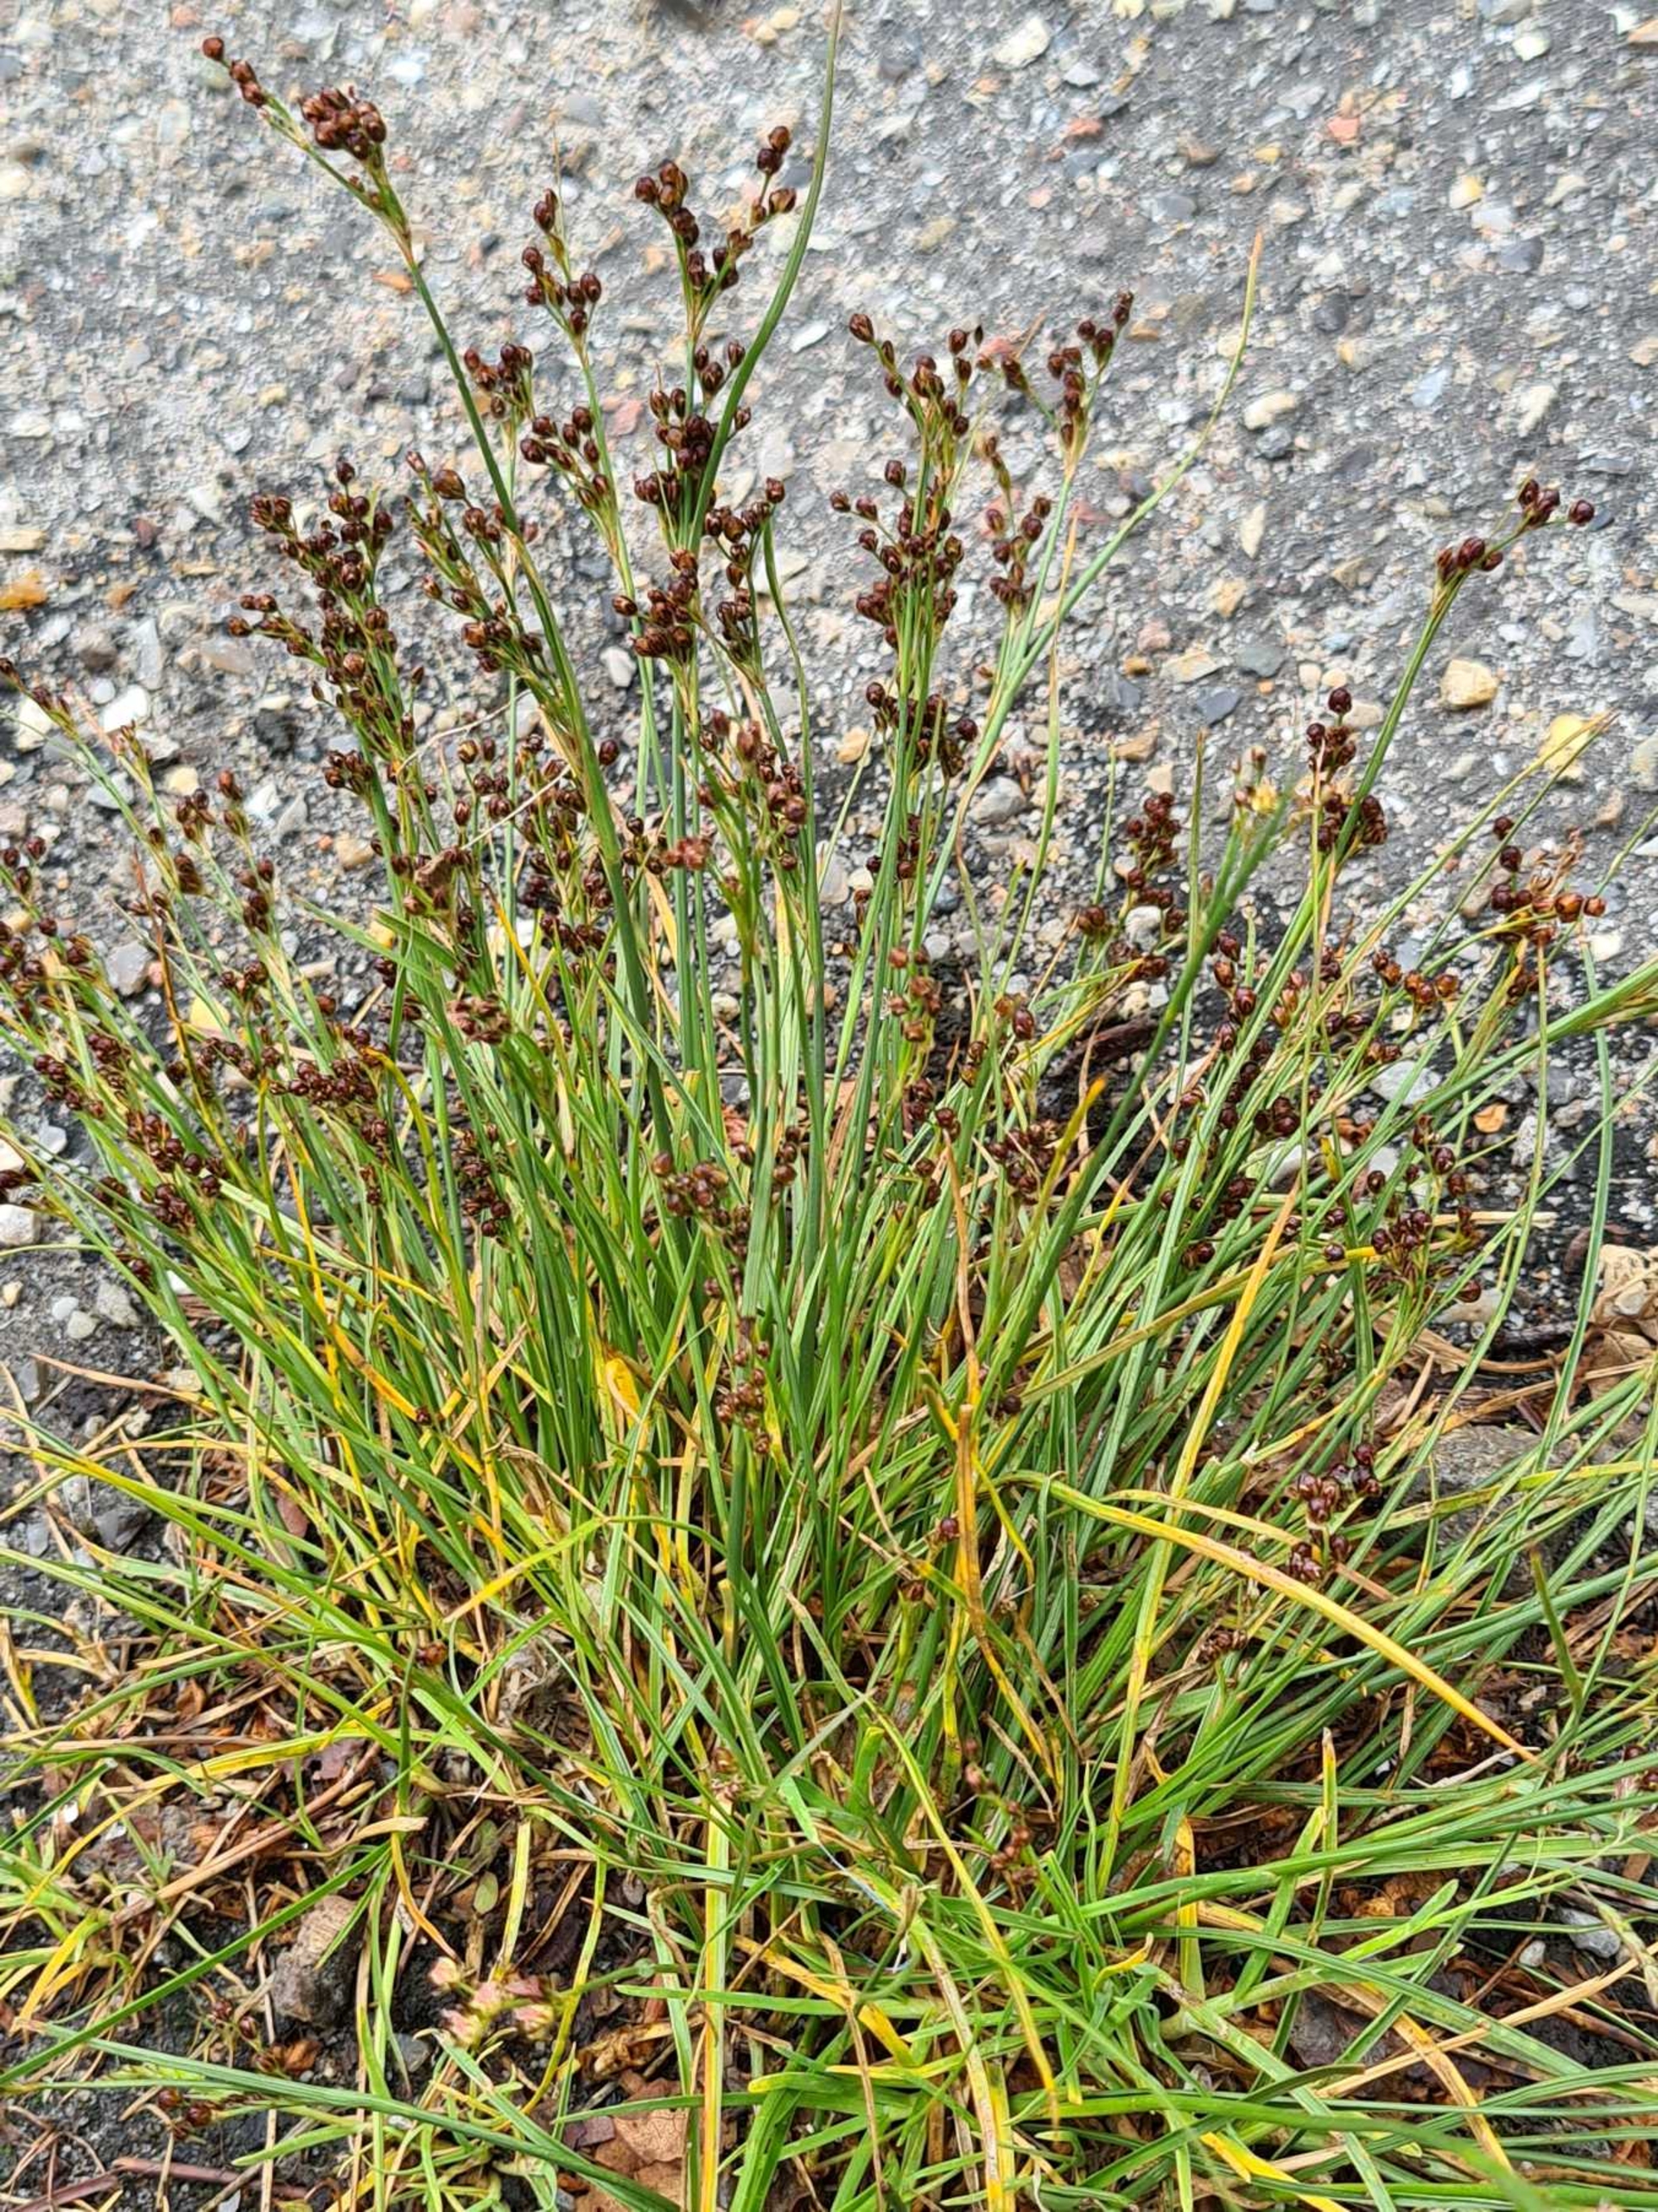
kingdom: Plantae
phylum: Tracheophyta
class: Liliopsida
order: Poales
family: Juncaceae
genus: Juncus
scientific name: Juncus compressus
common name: Fladstrået siv
